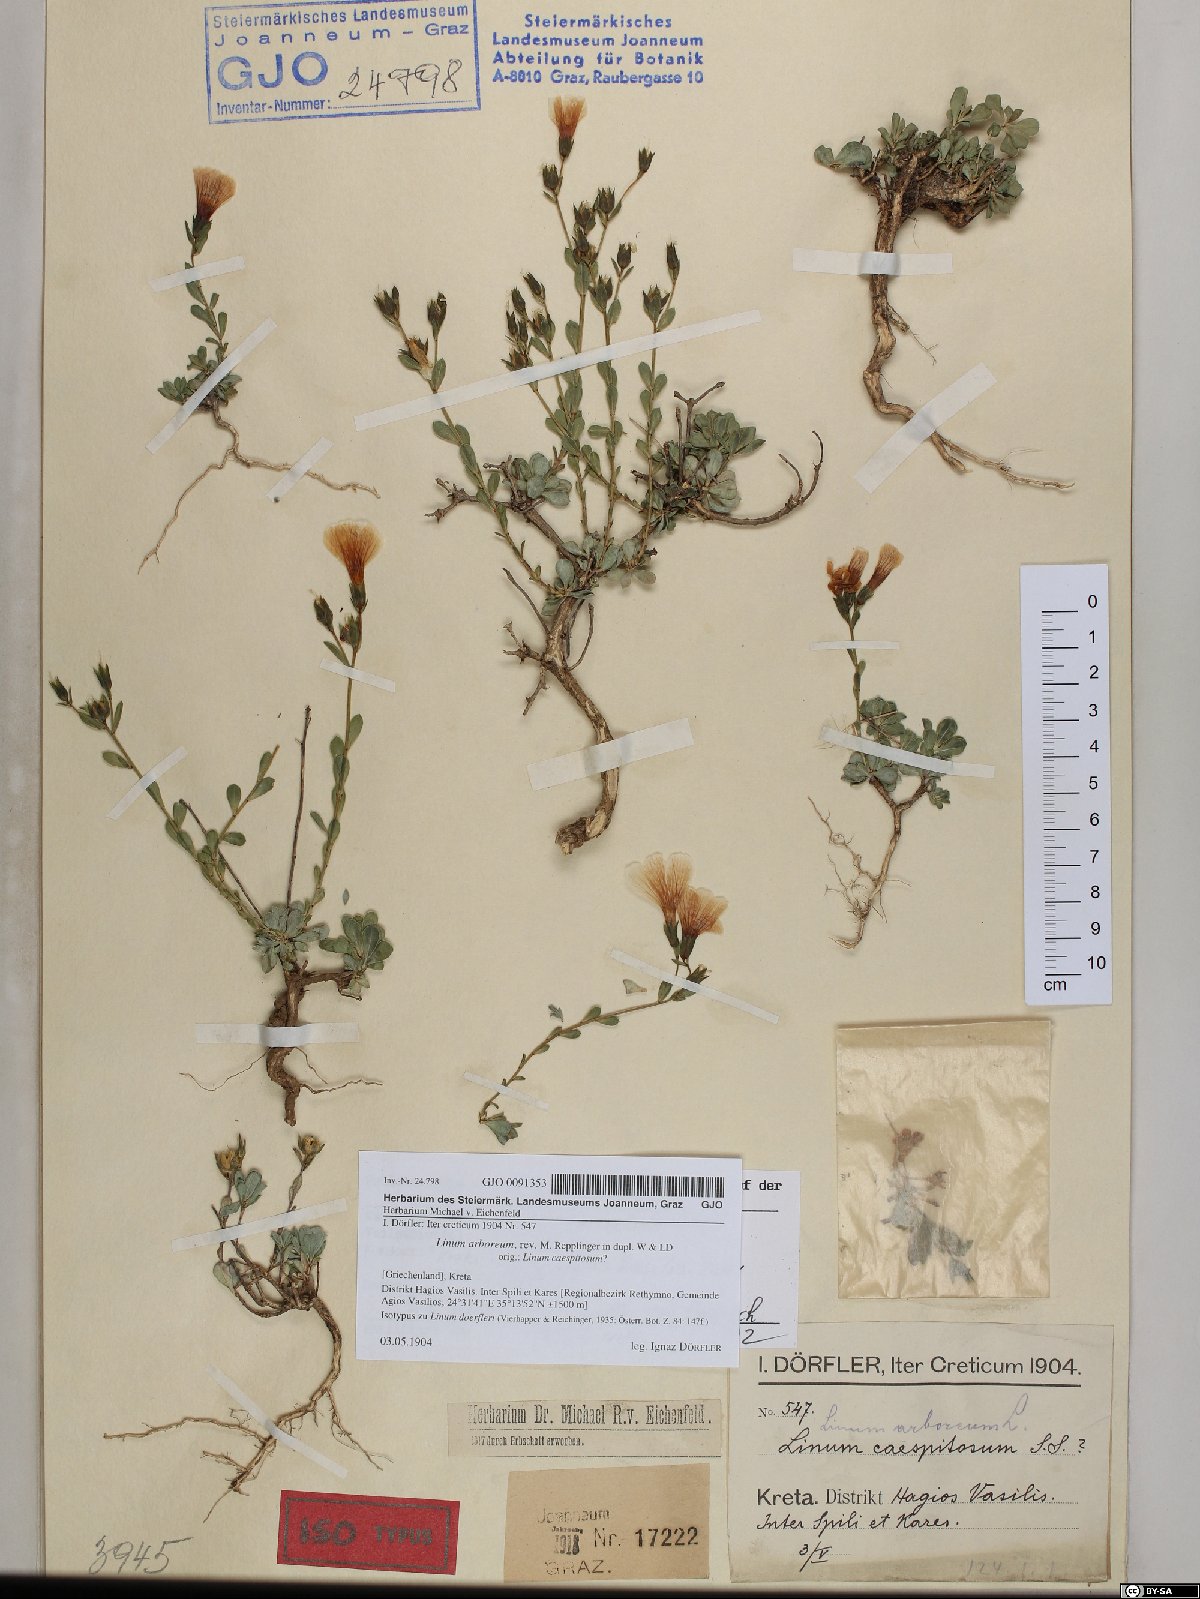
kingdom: Plantae
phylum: Tracheophyta
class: Magnoliopsida
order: Malpighiales
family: Linaceae
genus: Linum
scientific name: Linum arboreum
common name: Tree flax
